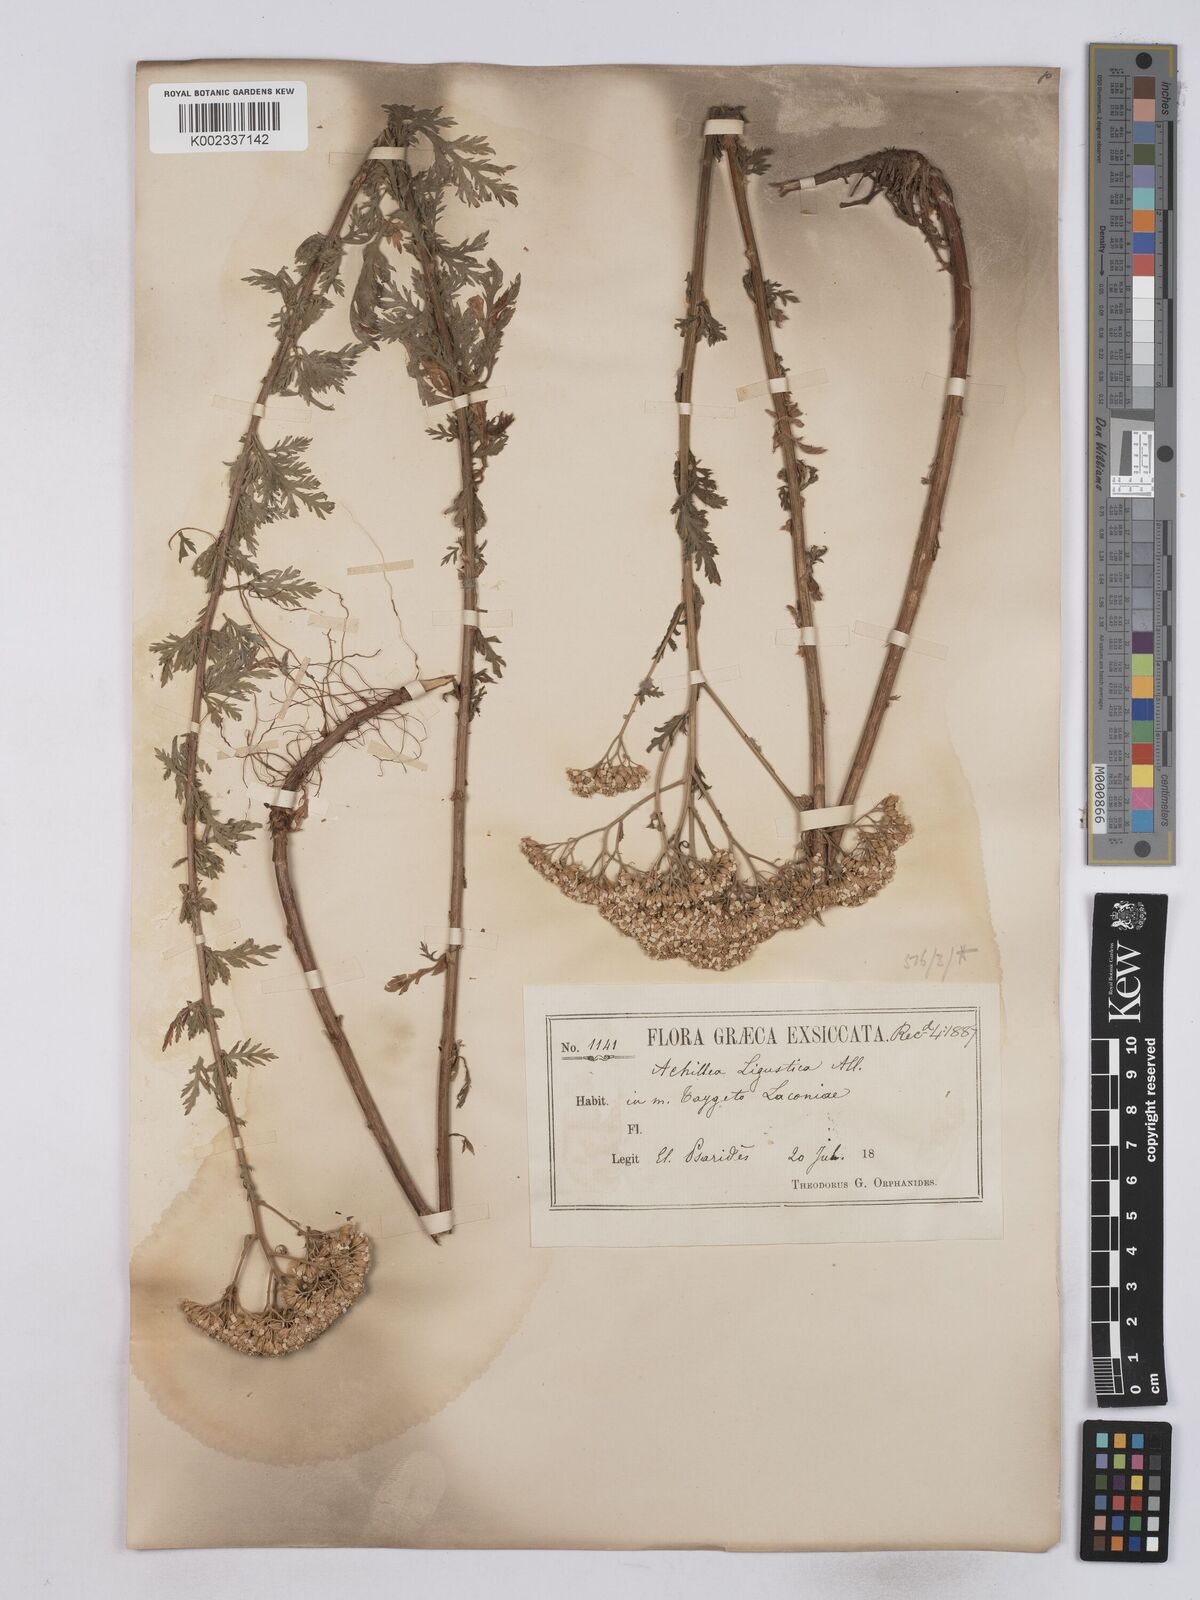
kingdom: Plantae
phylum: Tracheophyta
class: Magnoliopsida
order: Asterales
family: Asteraceae
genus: Achillea
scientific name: Achillea ligustica
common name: Southern yarrow
